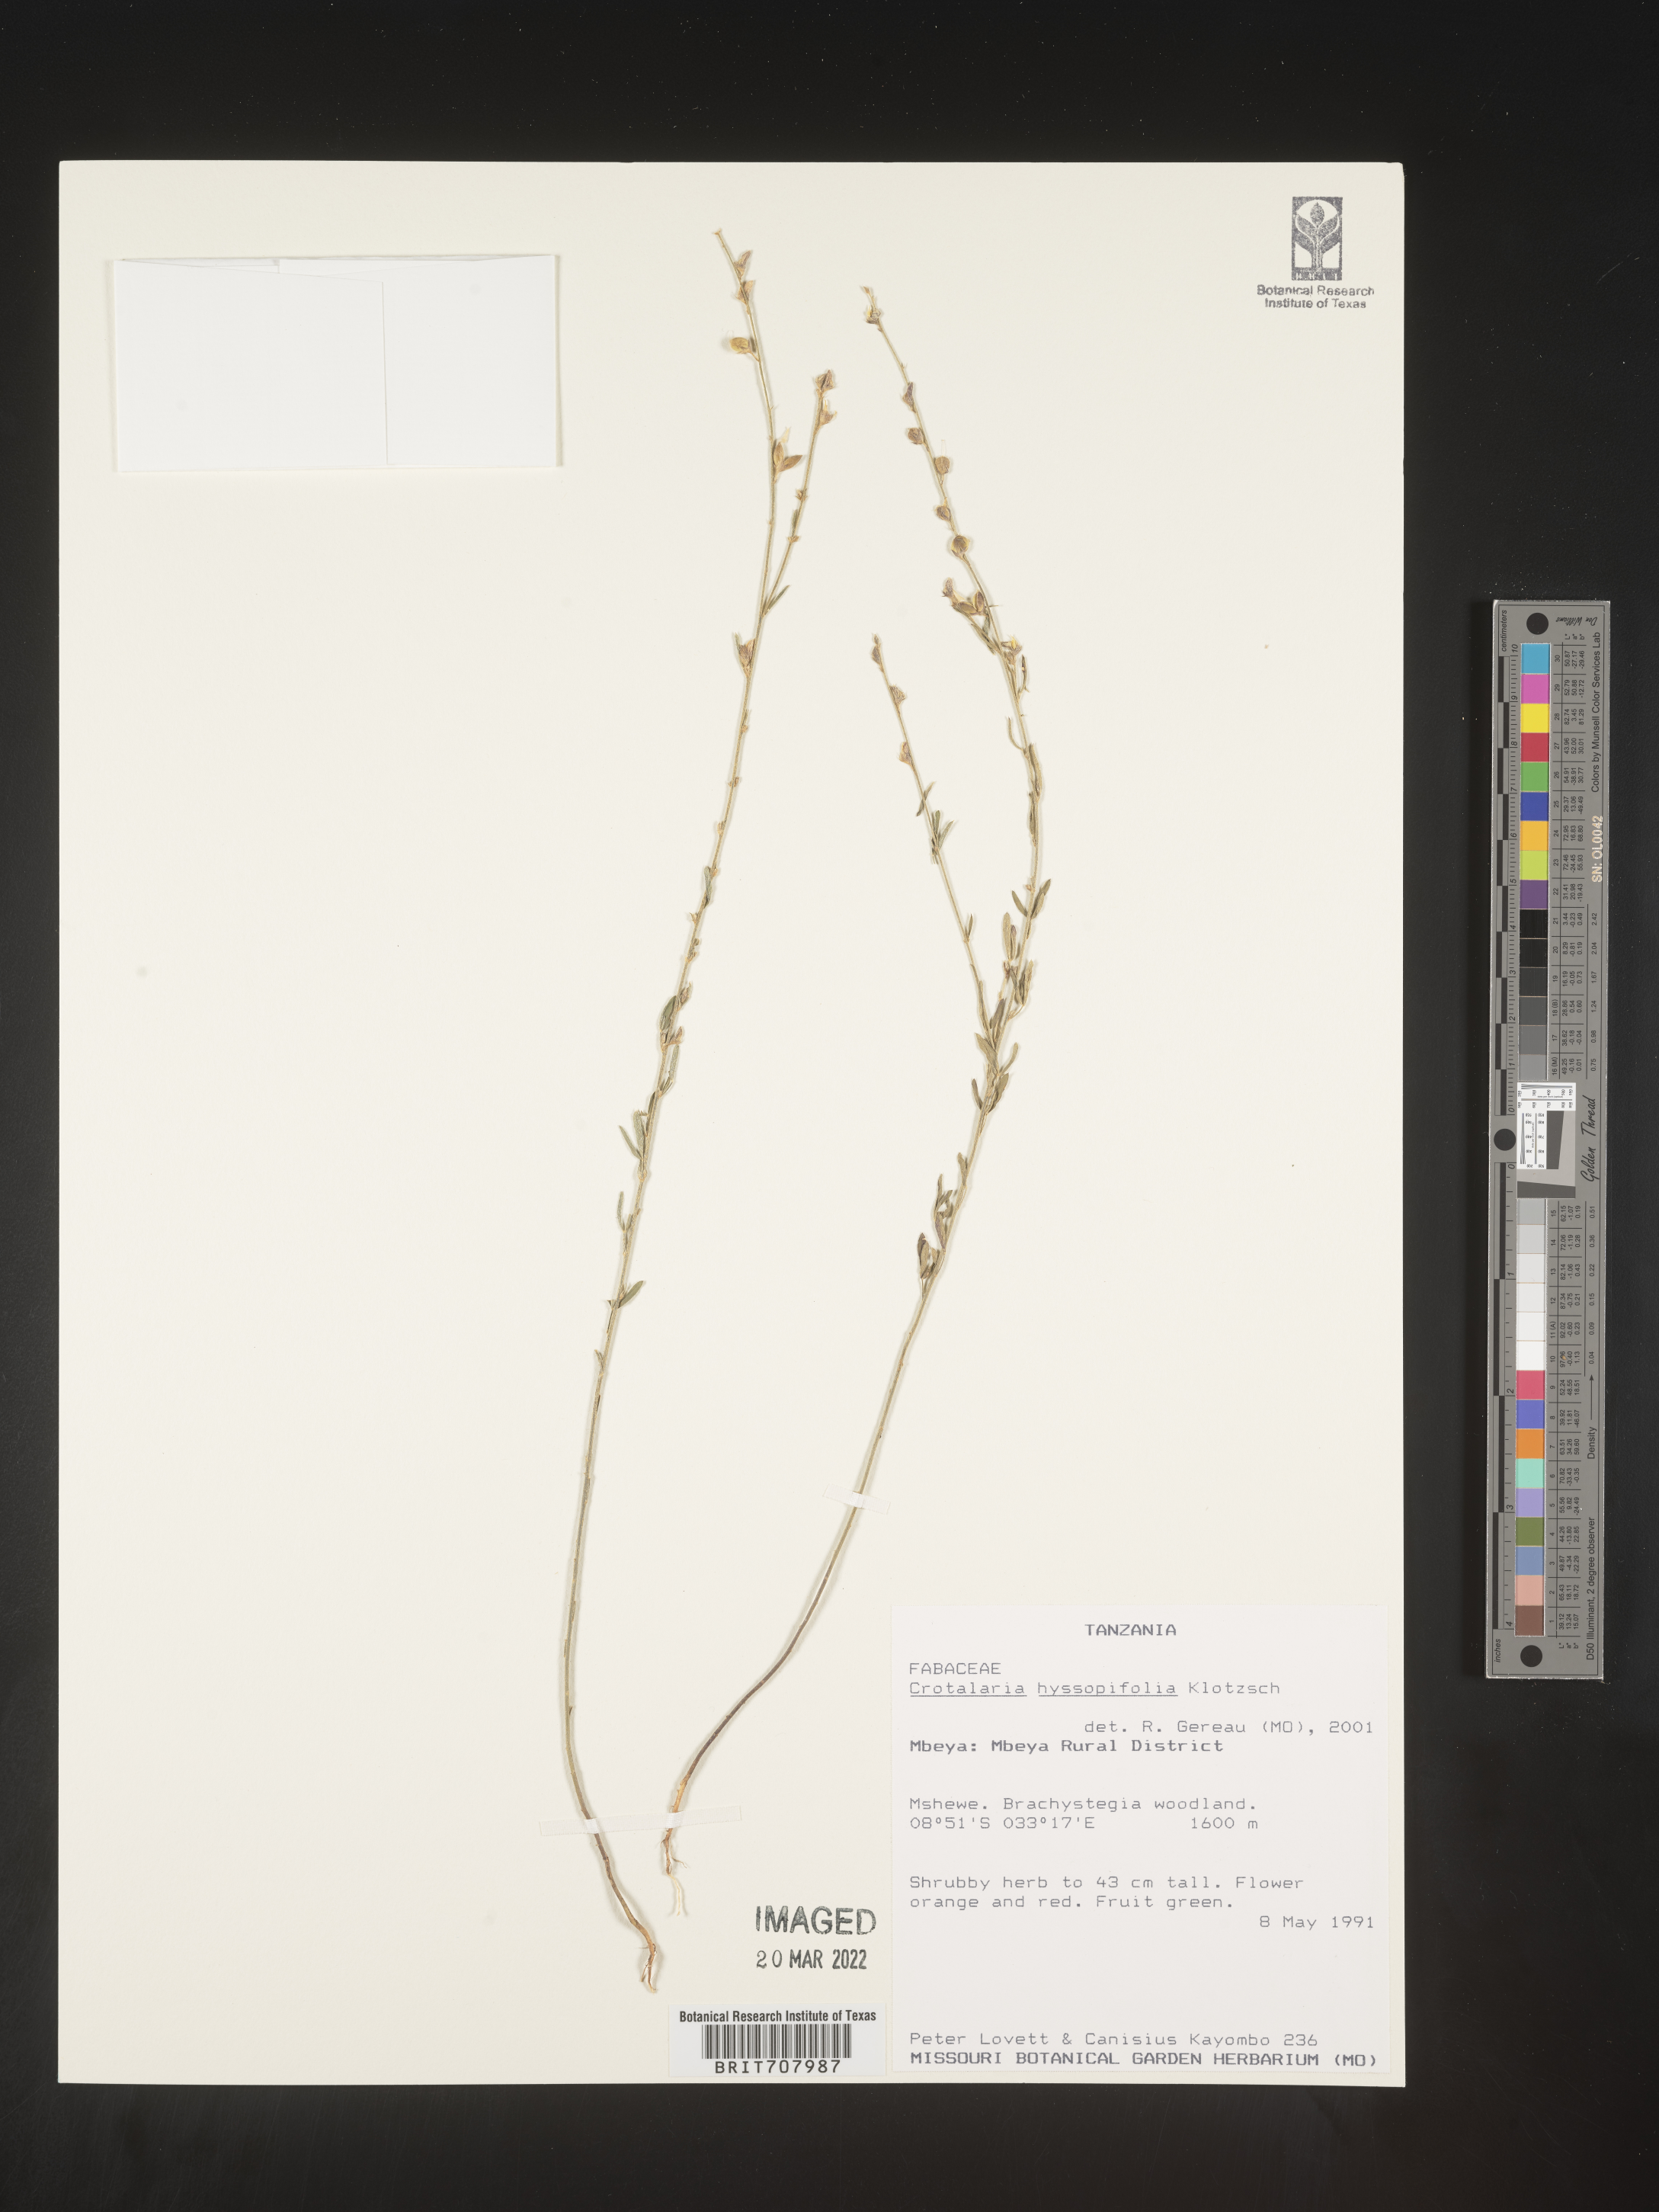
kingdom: Plantae
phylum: Tracheophyta
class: Magnoliopsida
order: Fabales
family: Fabaceae
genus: Crotalaria
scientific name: Crotalaria
